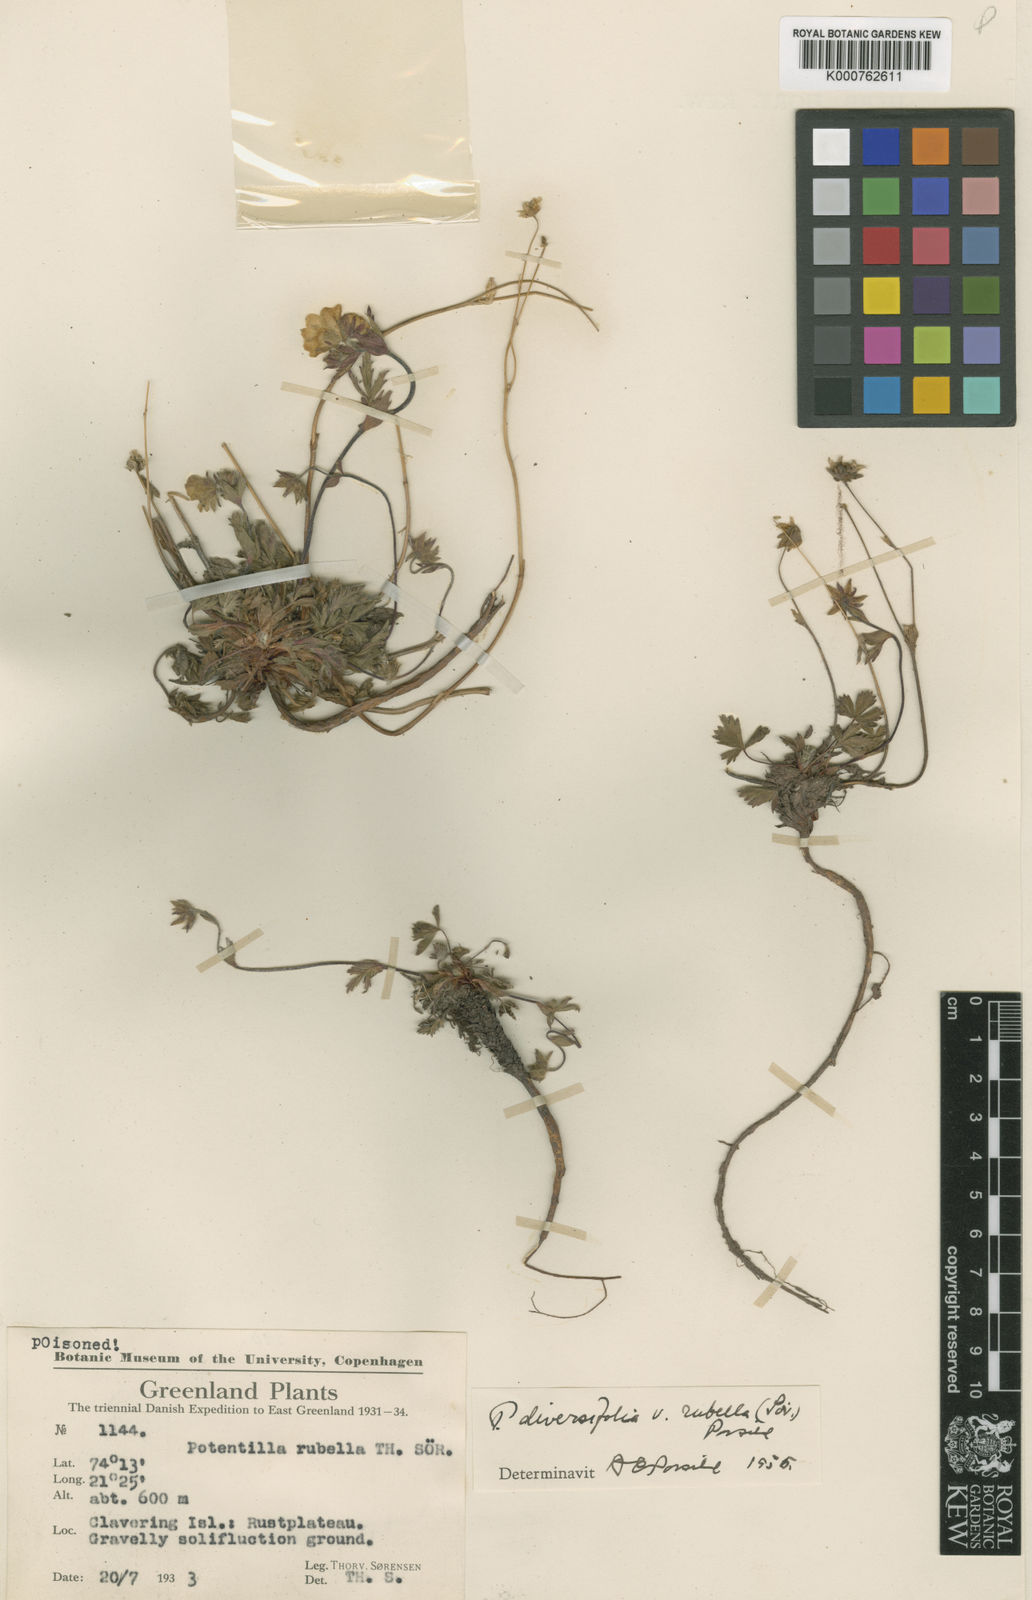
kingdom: Plantae
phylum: Tracheophyta
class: Magnoliopsida
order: Rosales
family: Rosaceae
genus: Potentilla
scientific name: Potentilla
